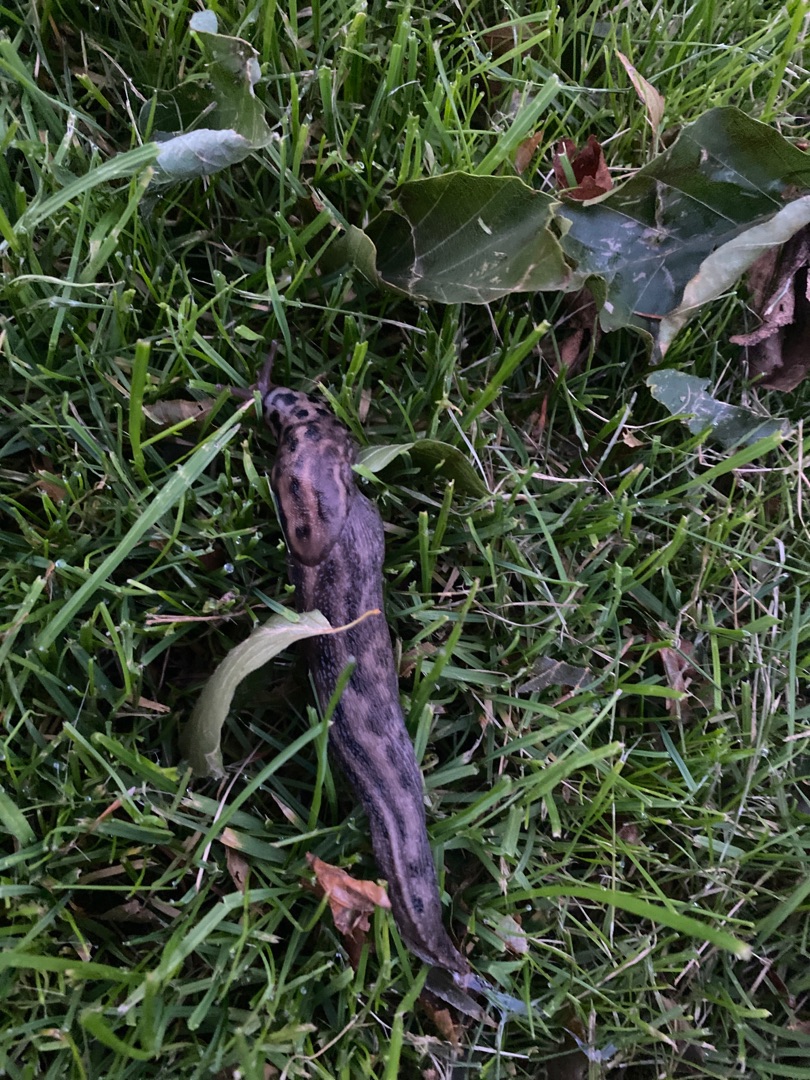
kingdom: Animalia
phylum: Mollusca
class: Gastropoda
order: Stylommatophora
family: Limacidae
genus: Limax
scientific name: Limax maximus
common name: Pantersnegl
